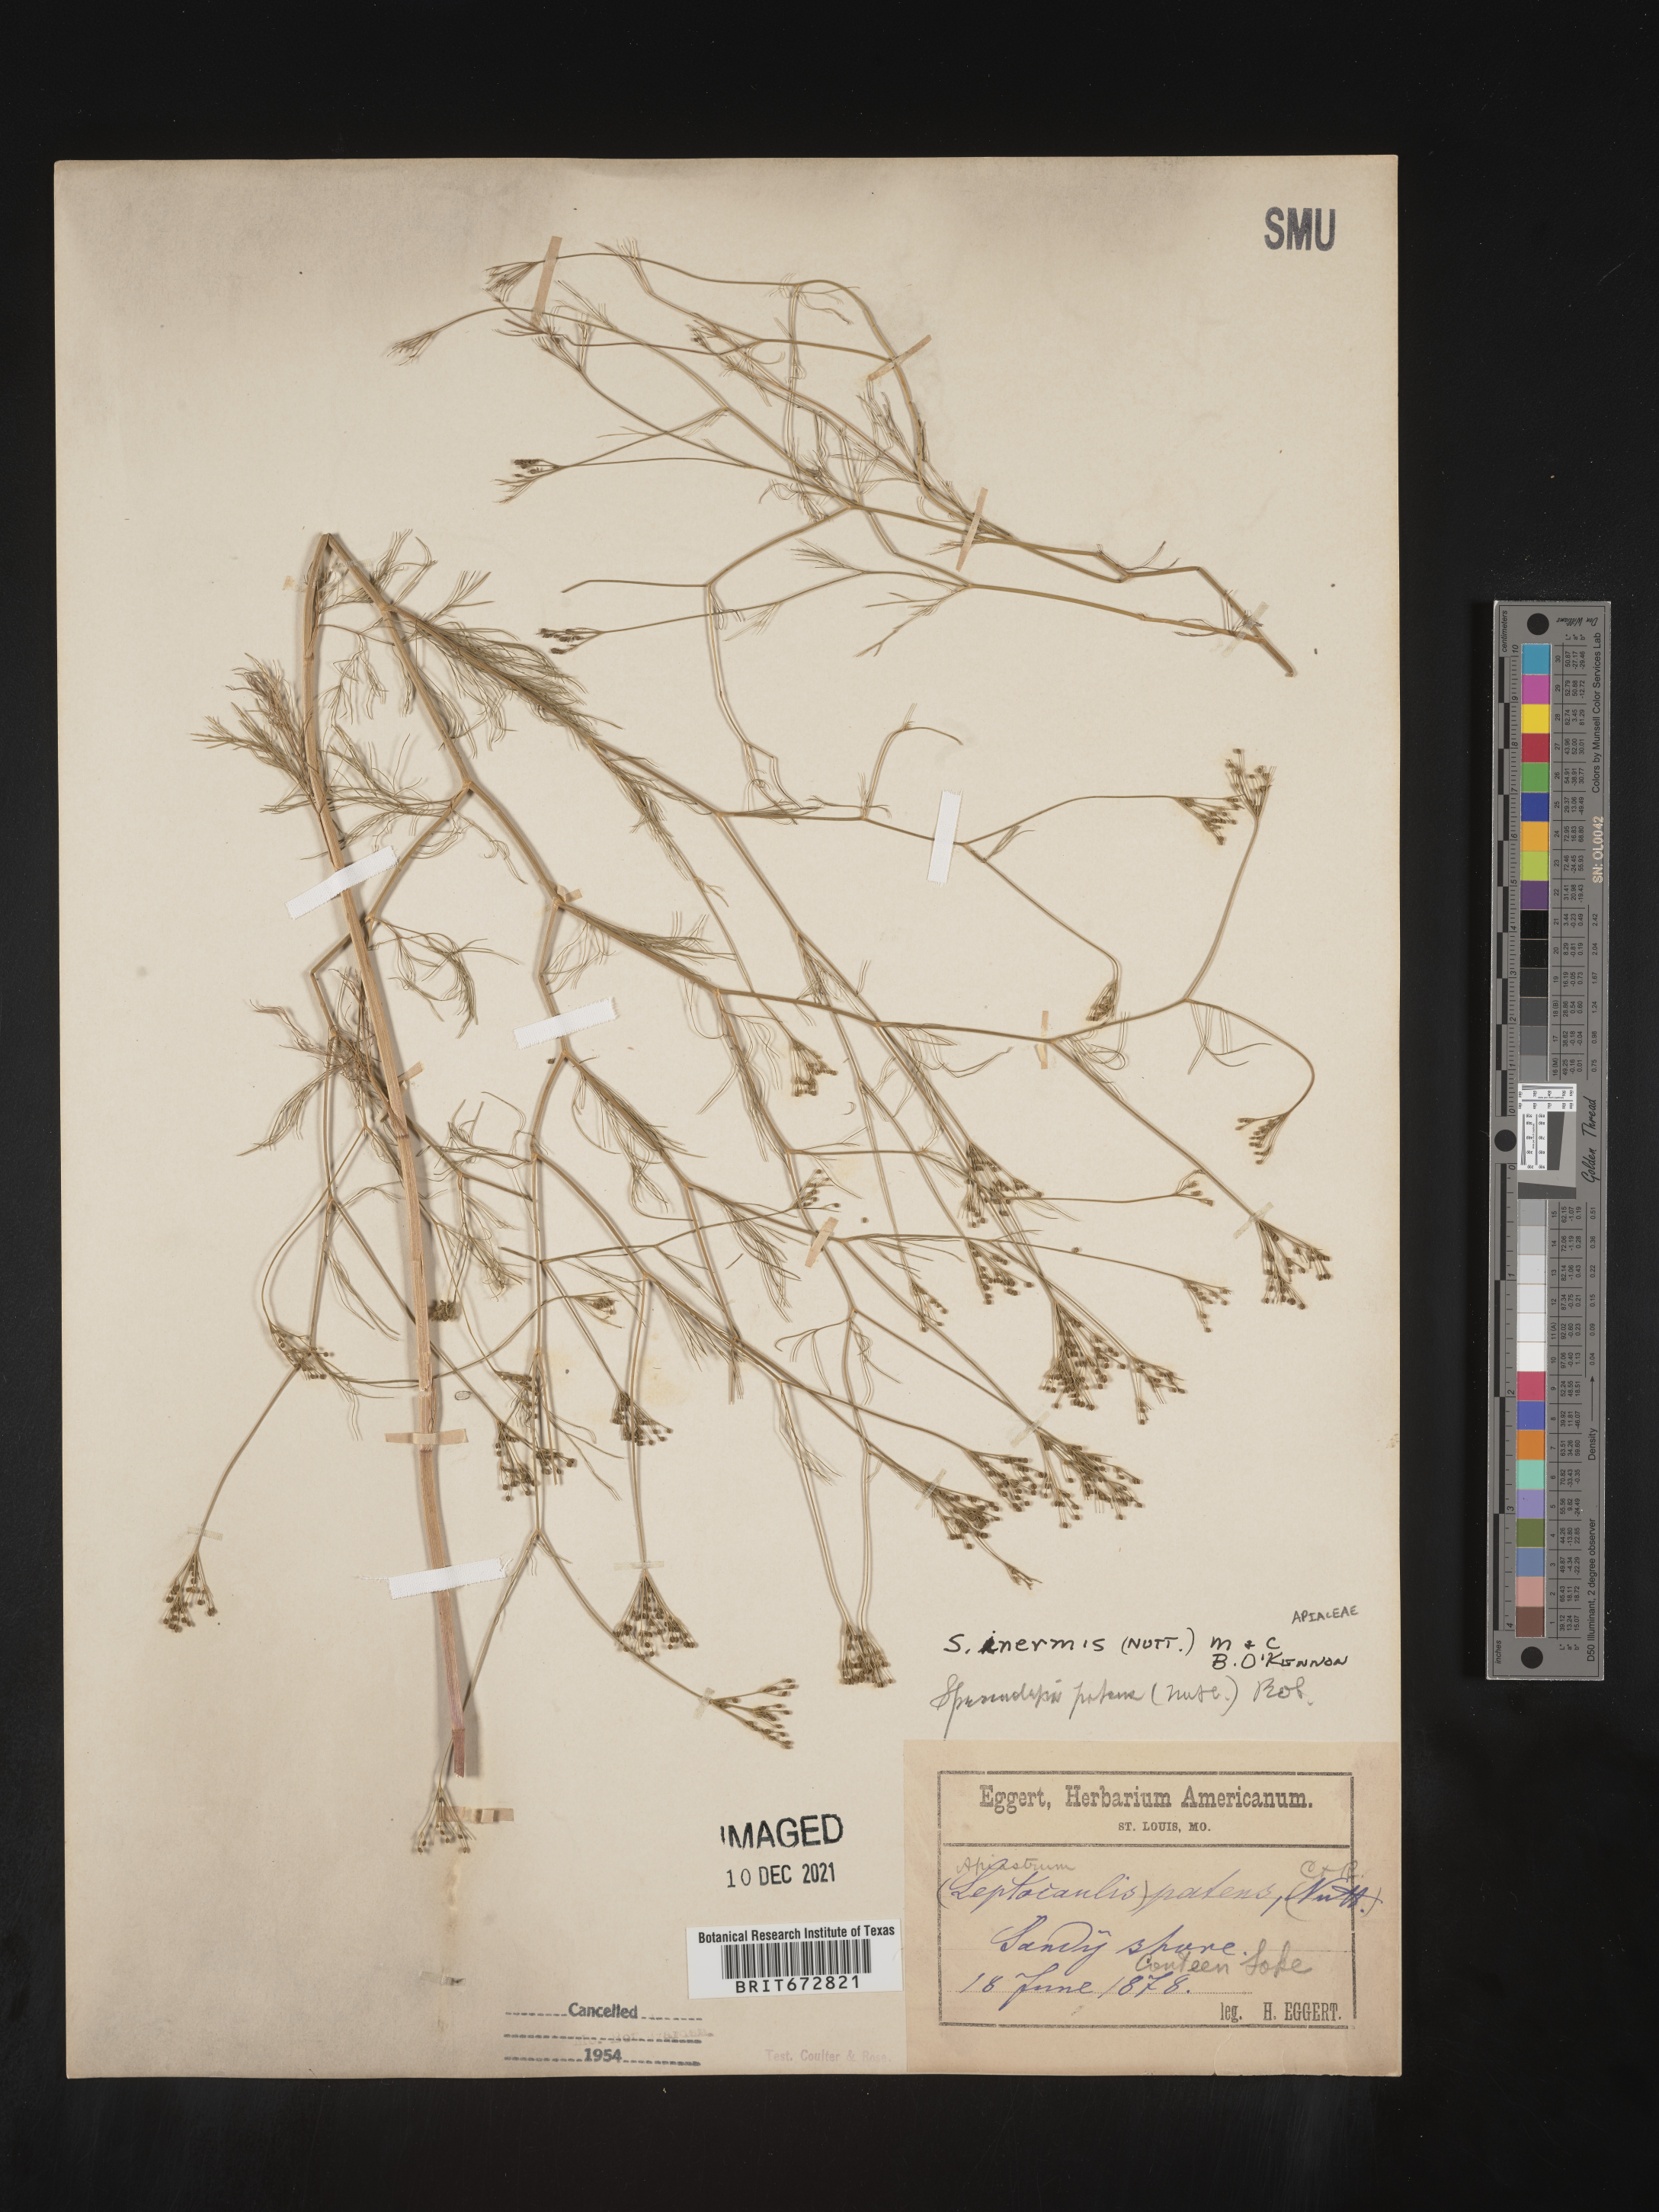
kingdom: Plantae
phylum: Tracheophyta
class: Magnoliopsida
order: Apiales
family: Apiaceae
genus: Spermolepis
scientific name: Spermolepis inermis
